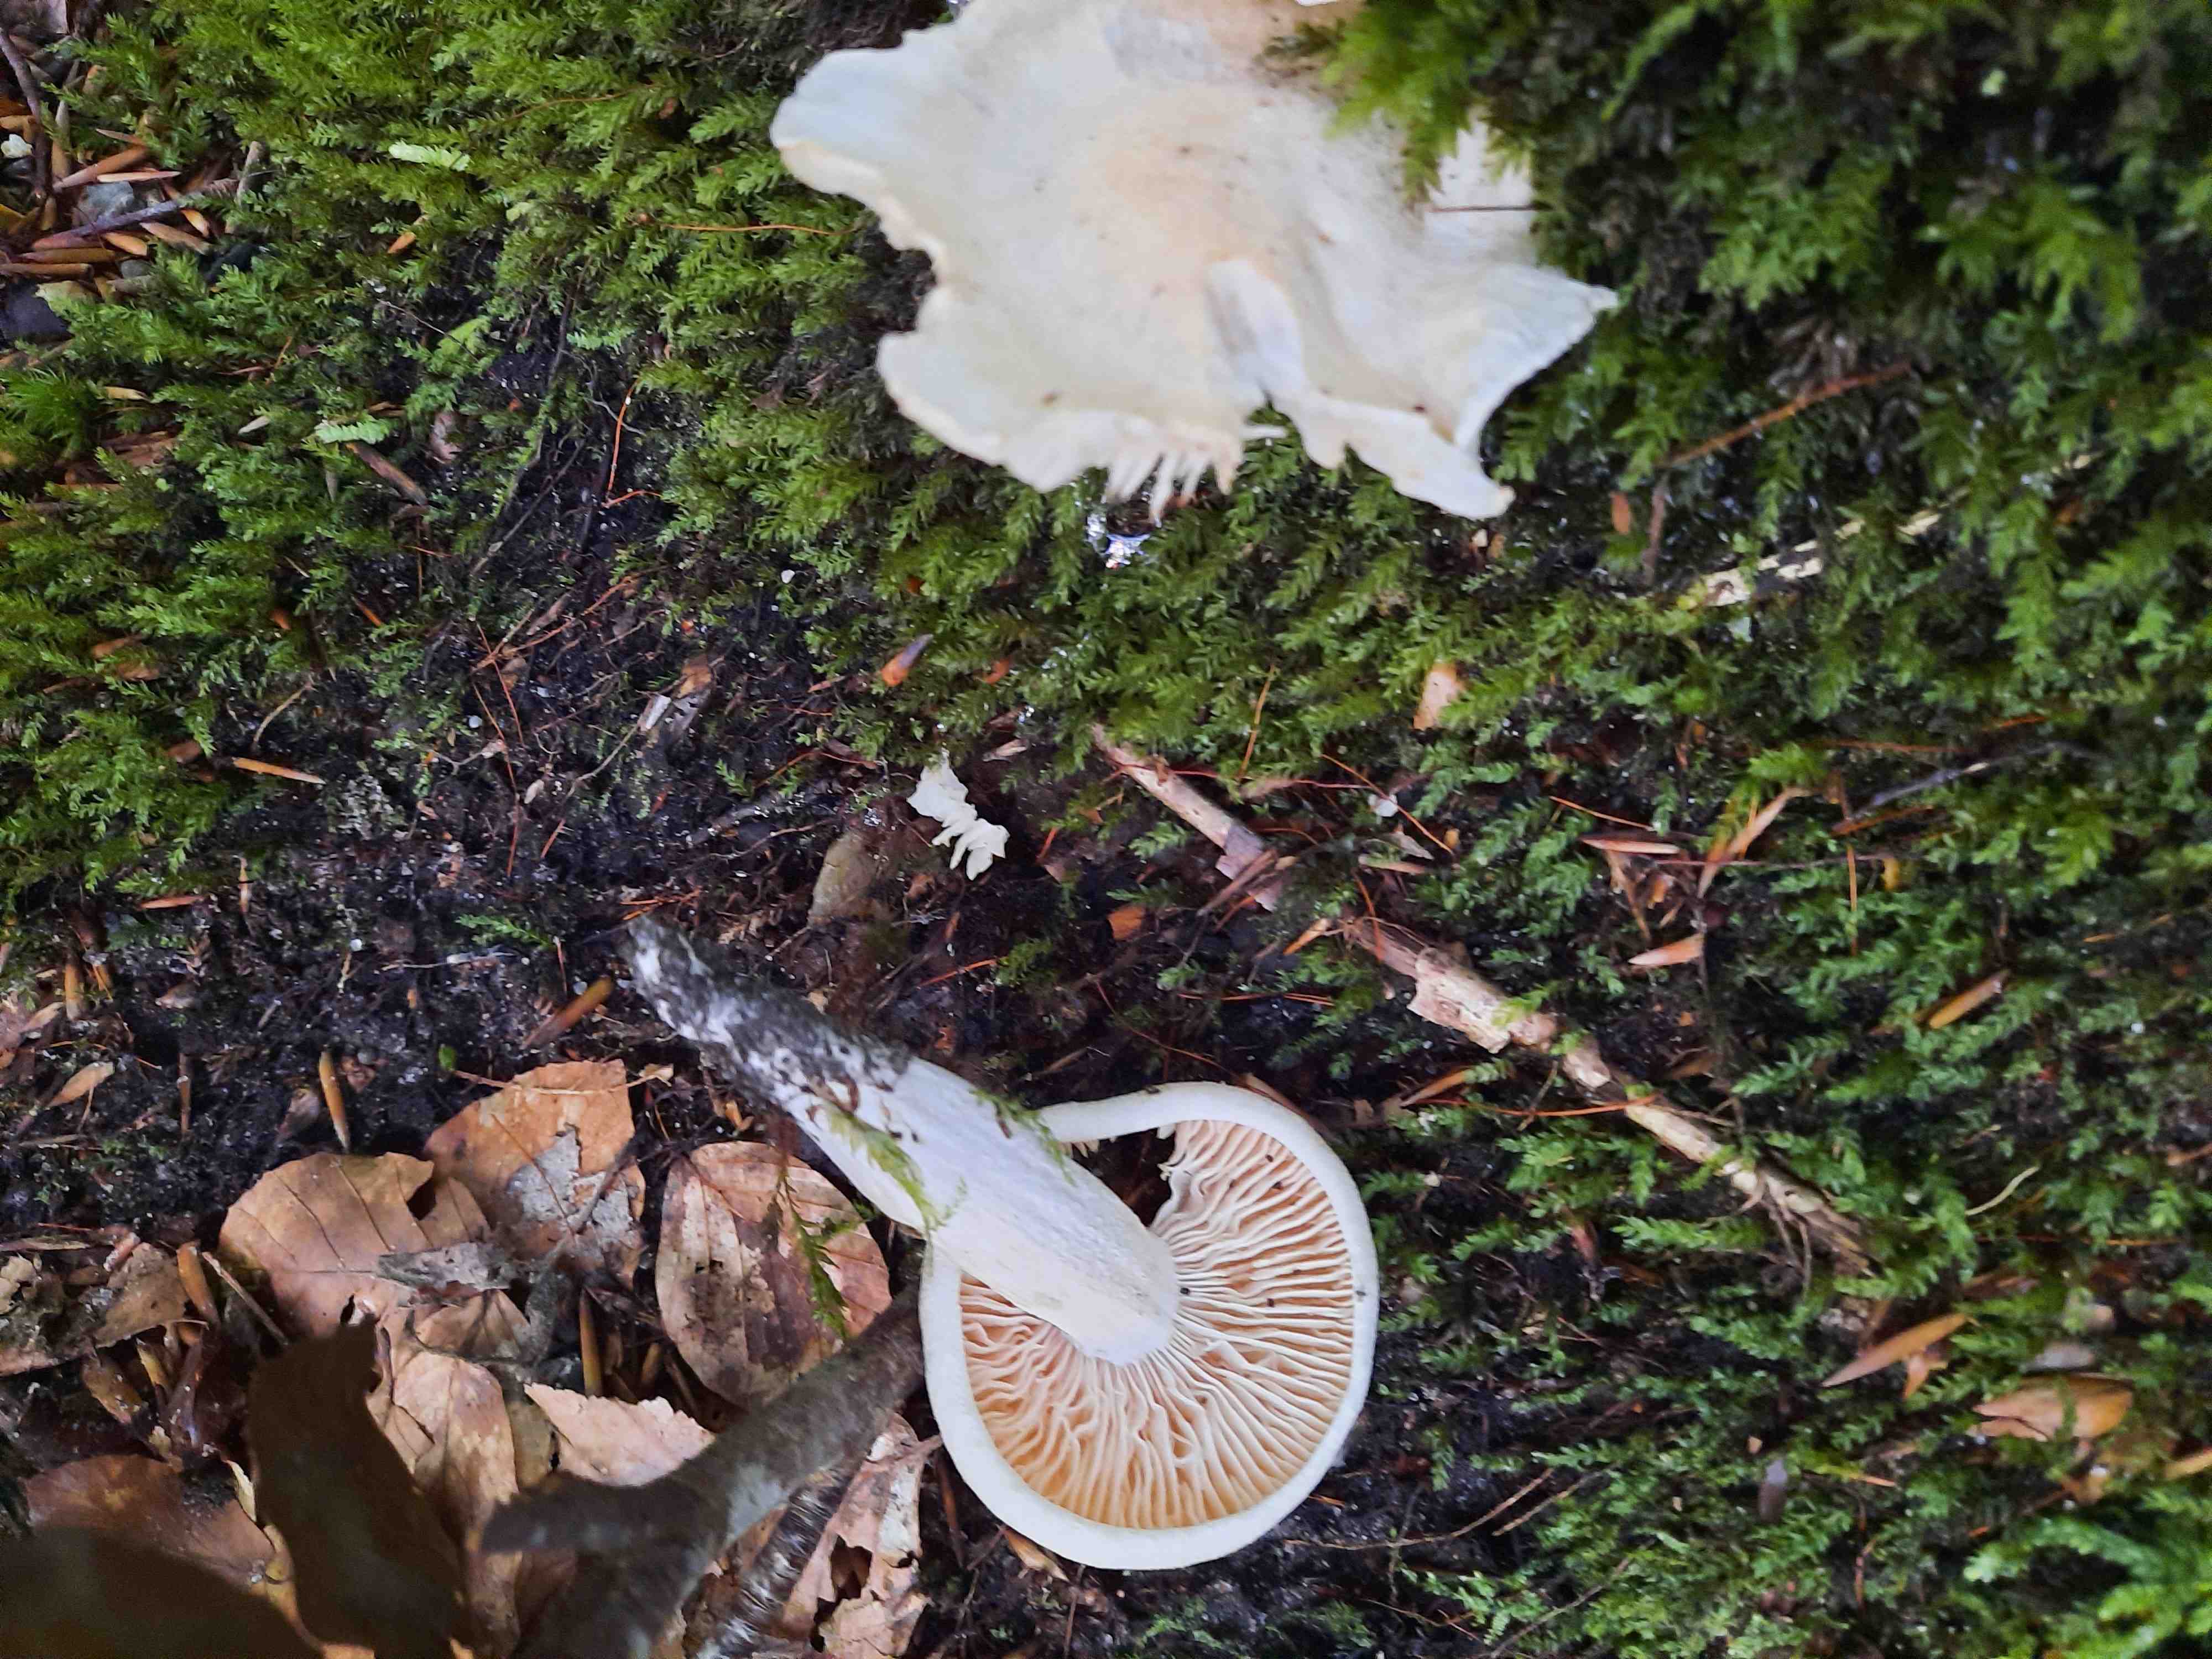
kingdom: Fungi
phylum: Basidiomycota
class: Agaricomycetes
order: Agaricales
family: Hygrophoraceae
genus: Hygrophorus
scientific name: Hygrophorus penarius
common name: spiselig sneglehat
